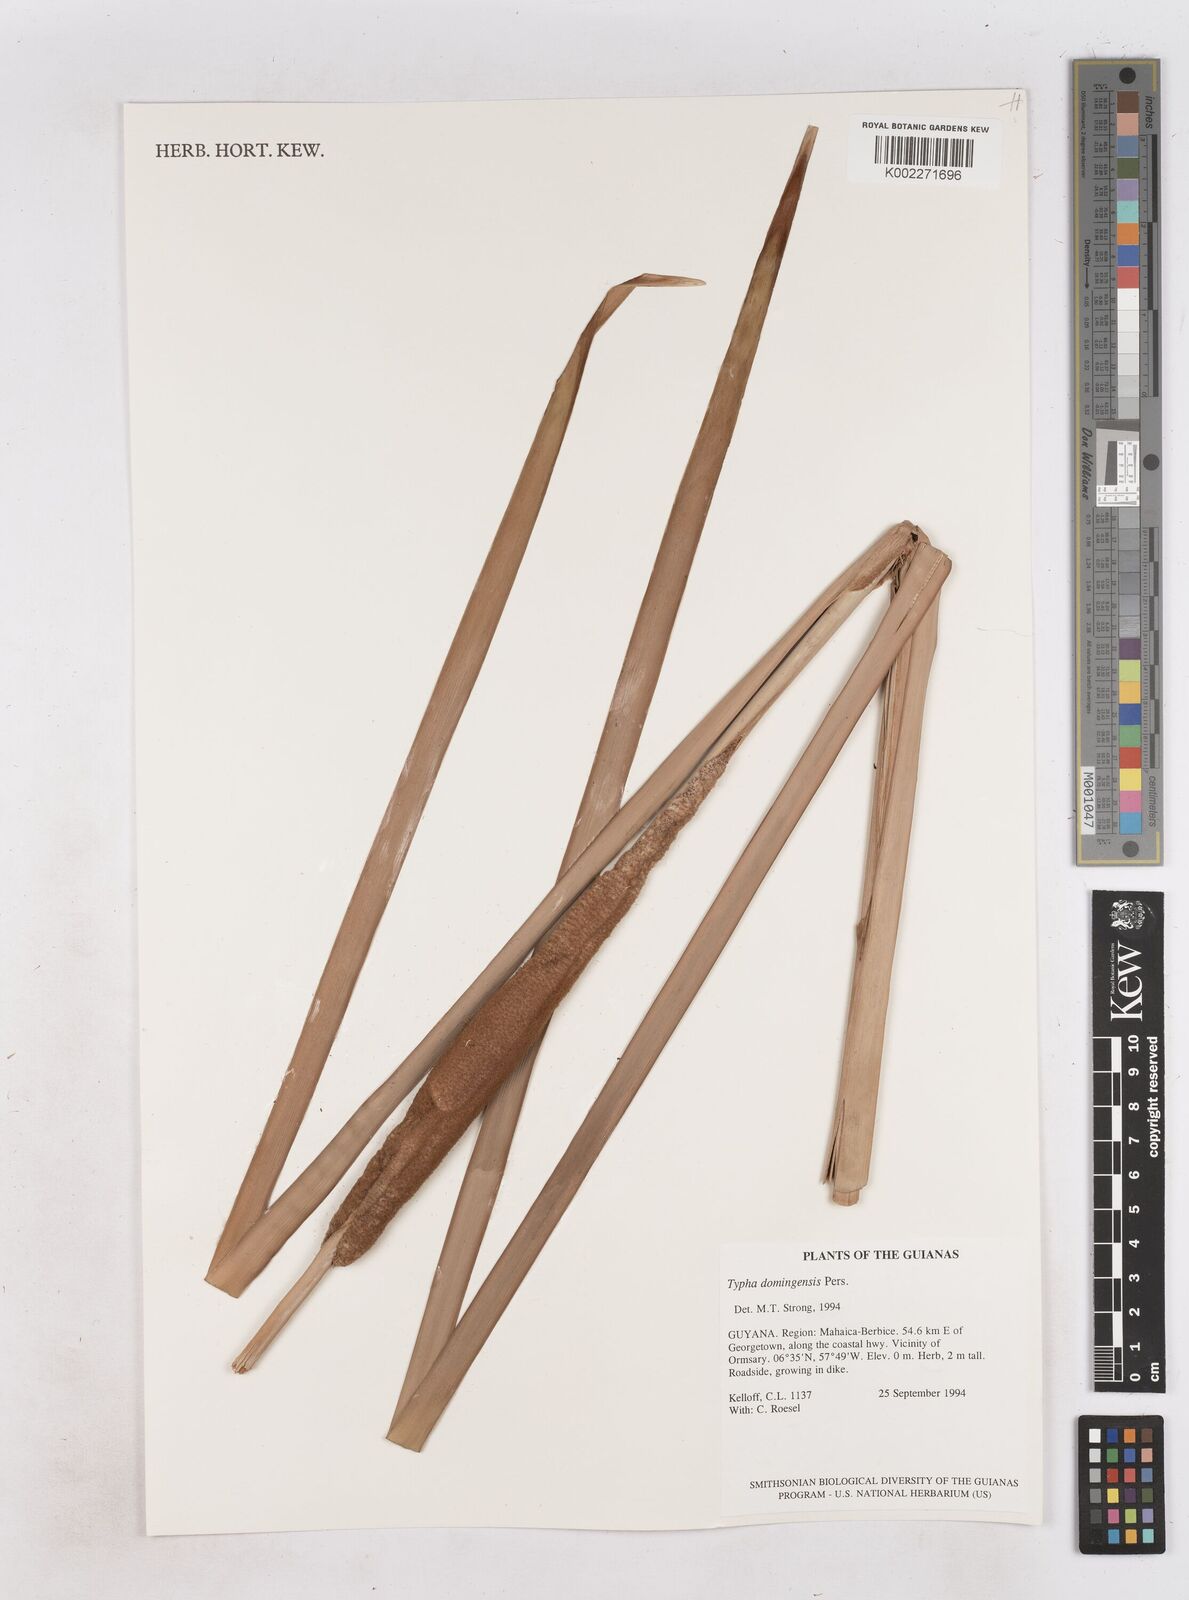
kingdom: Plantae
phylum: Tracheophyta
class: Liliopsida
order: Poales
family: Typhaceae
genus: Typha
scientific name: Typha domingensis
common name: Southern cattail
